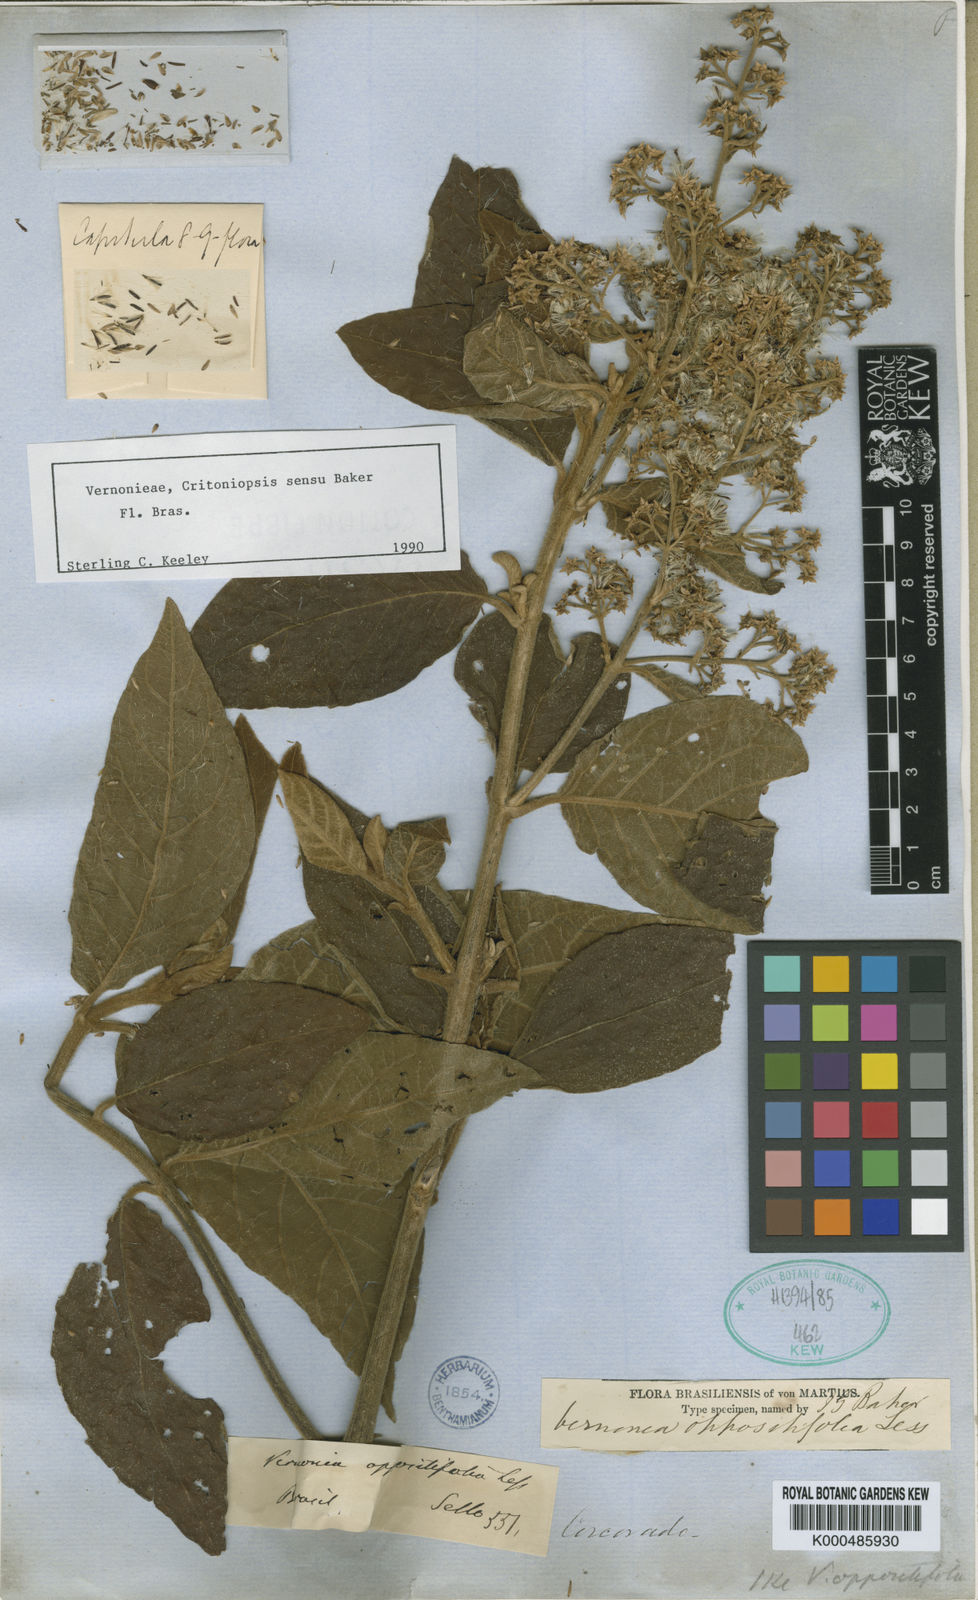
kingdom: Plantae
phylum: Tracheophyta
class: Magnoliopsida
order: Asterales
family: Asteraceae
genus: Critoniopsis
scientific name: Critoniopsis stellata
